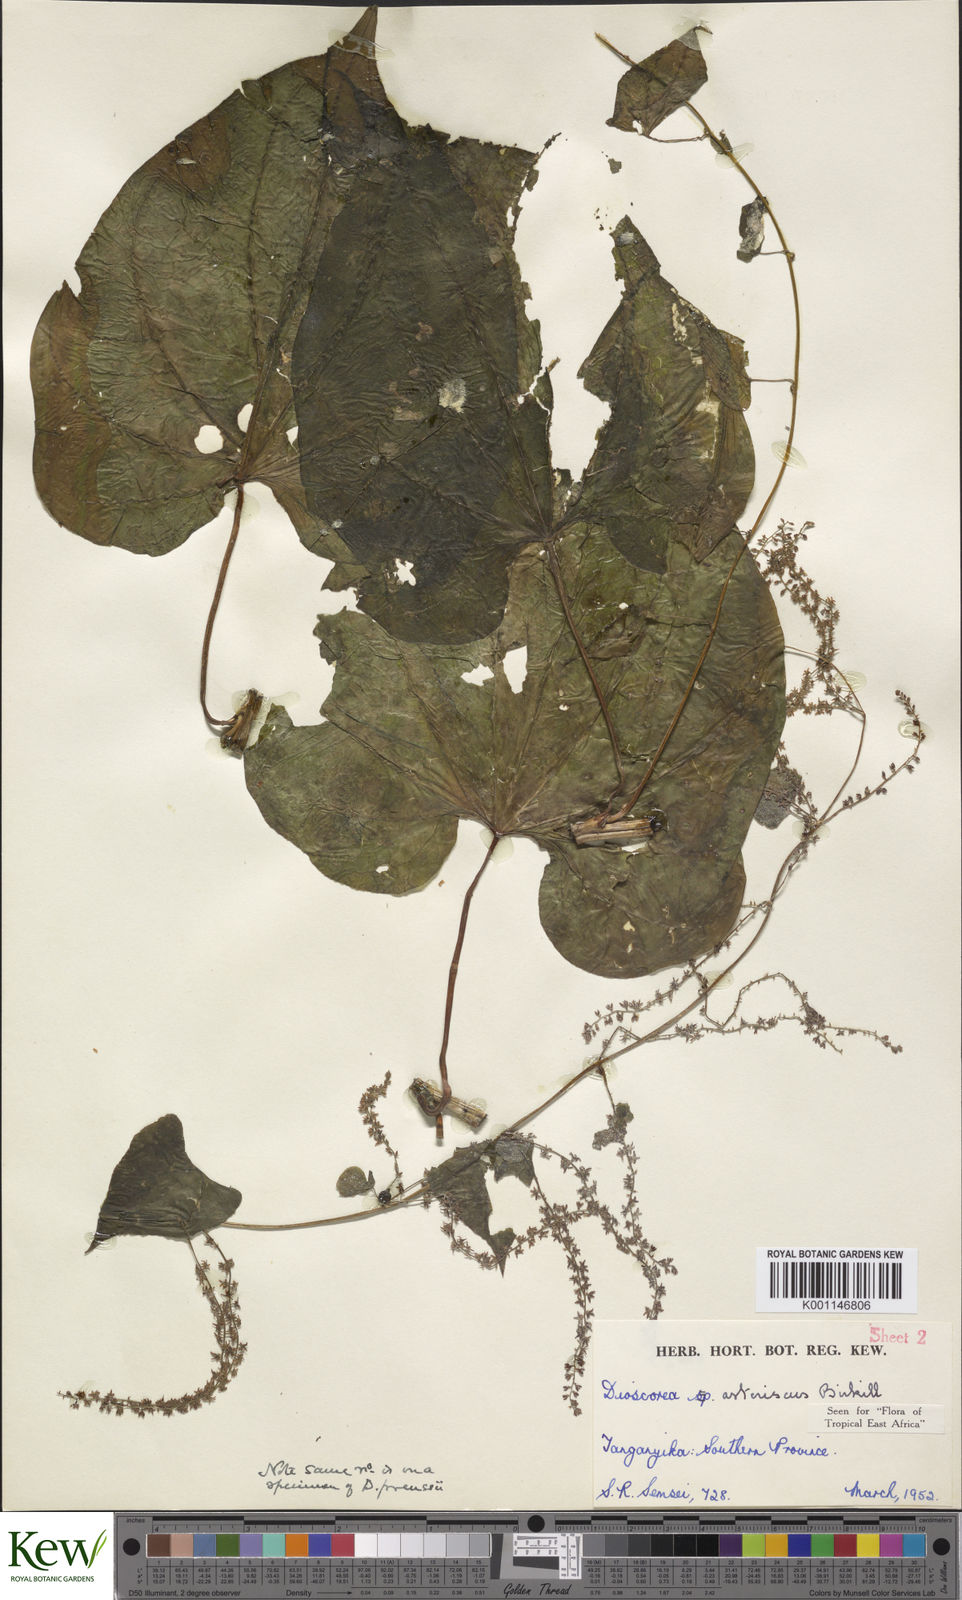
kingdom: Plantae
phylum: Tracheophyta
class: Liliopsida
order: Dioscoreales
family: Dioscoreaceae
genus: Dioscorea
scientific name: Dioscorea asteriscus
